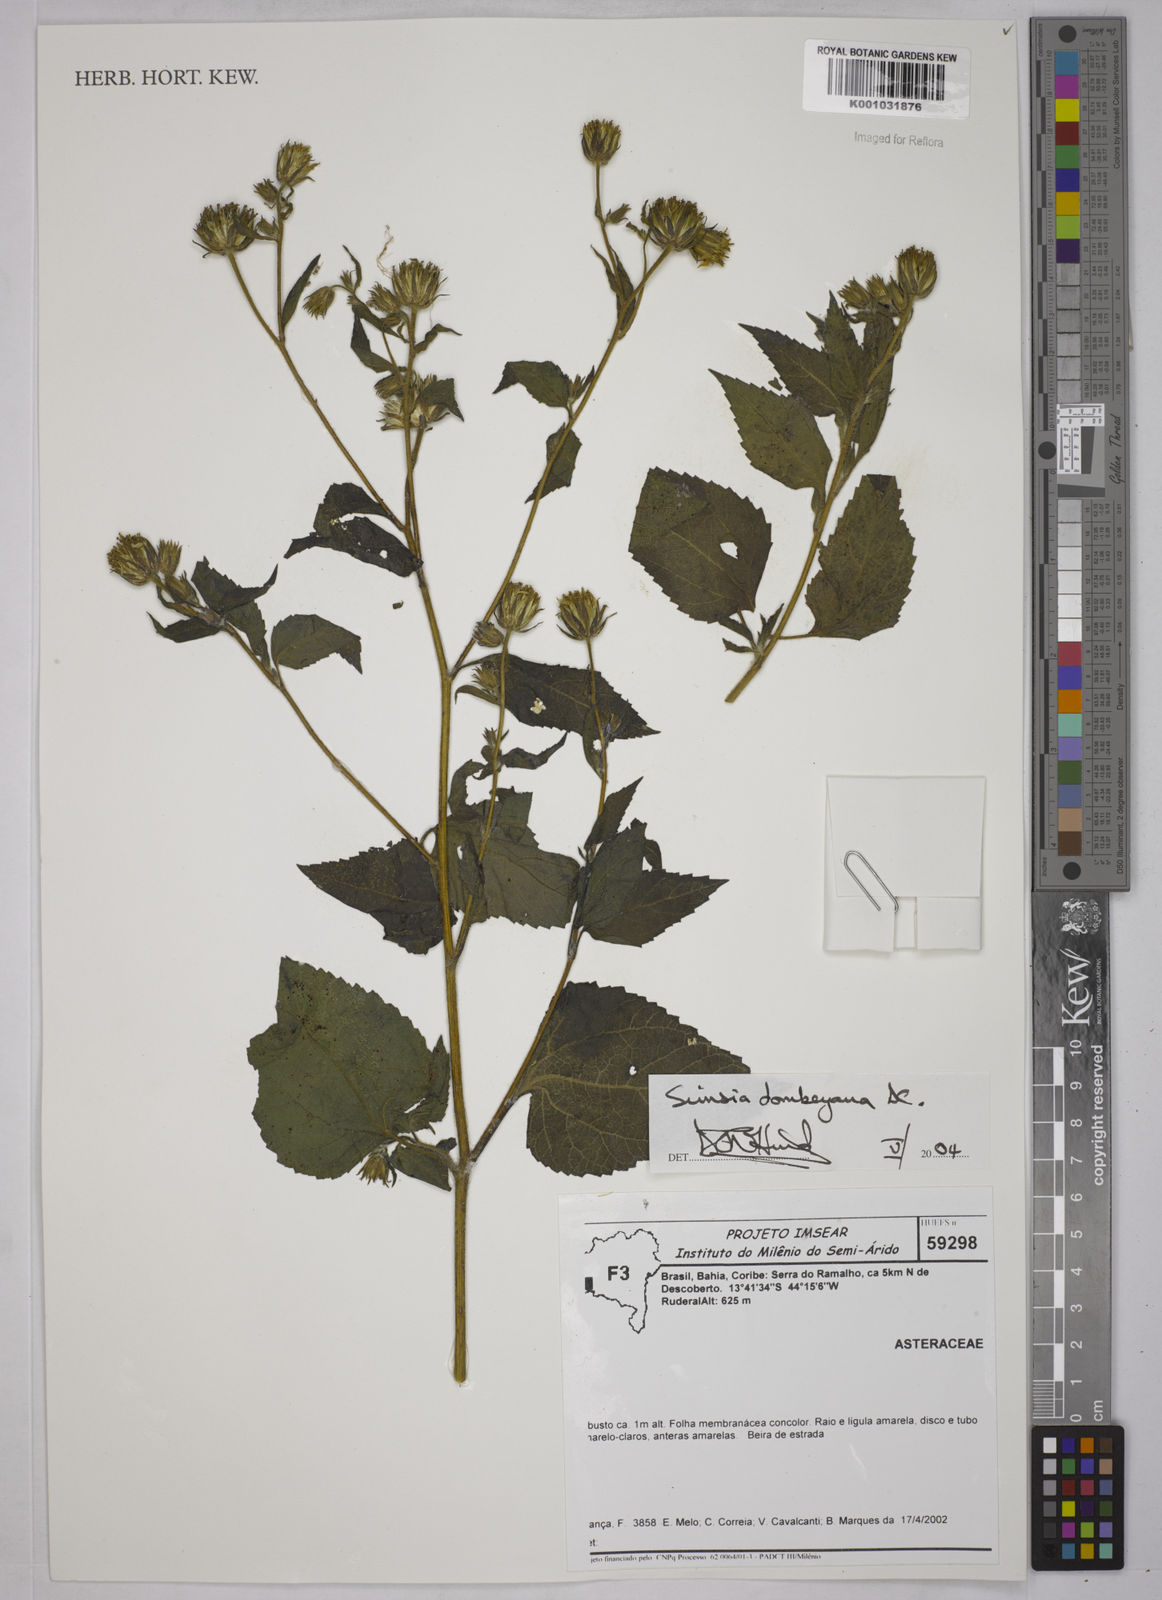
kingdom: Plantae
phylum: Tracheophyta
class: Magnoliopsida
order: Asterales
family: Asteraceae
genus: Simsia
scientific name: Simsia dombeyana
